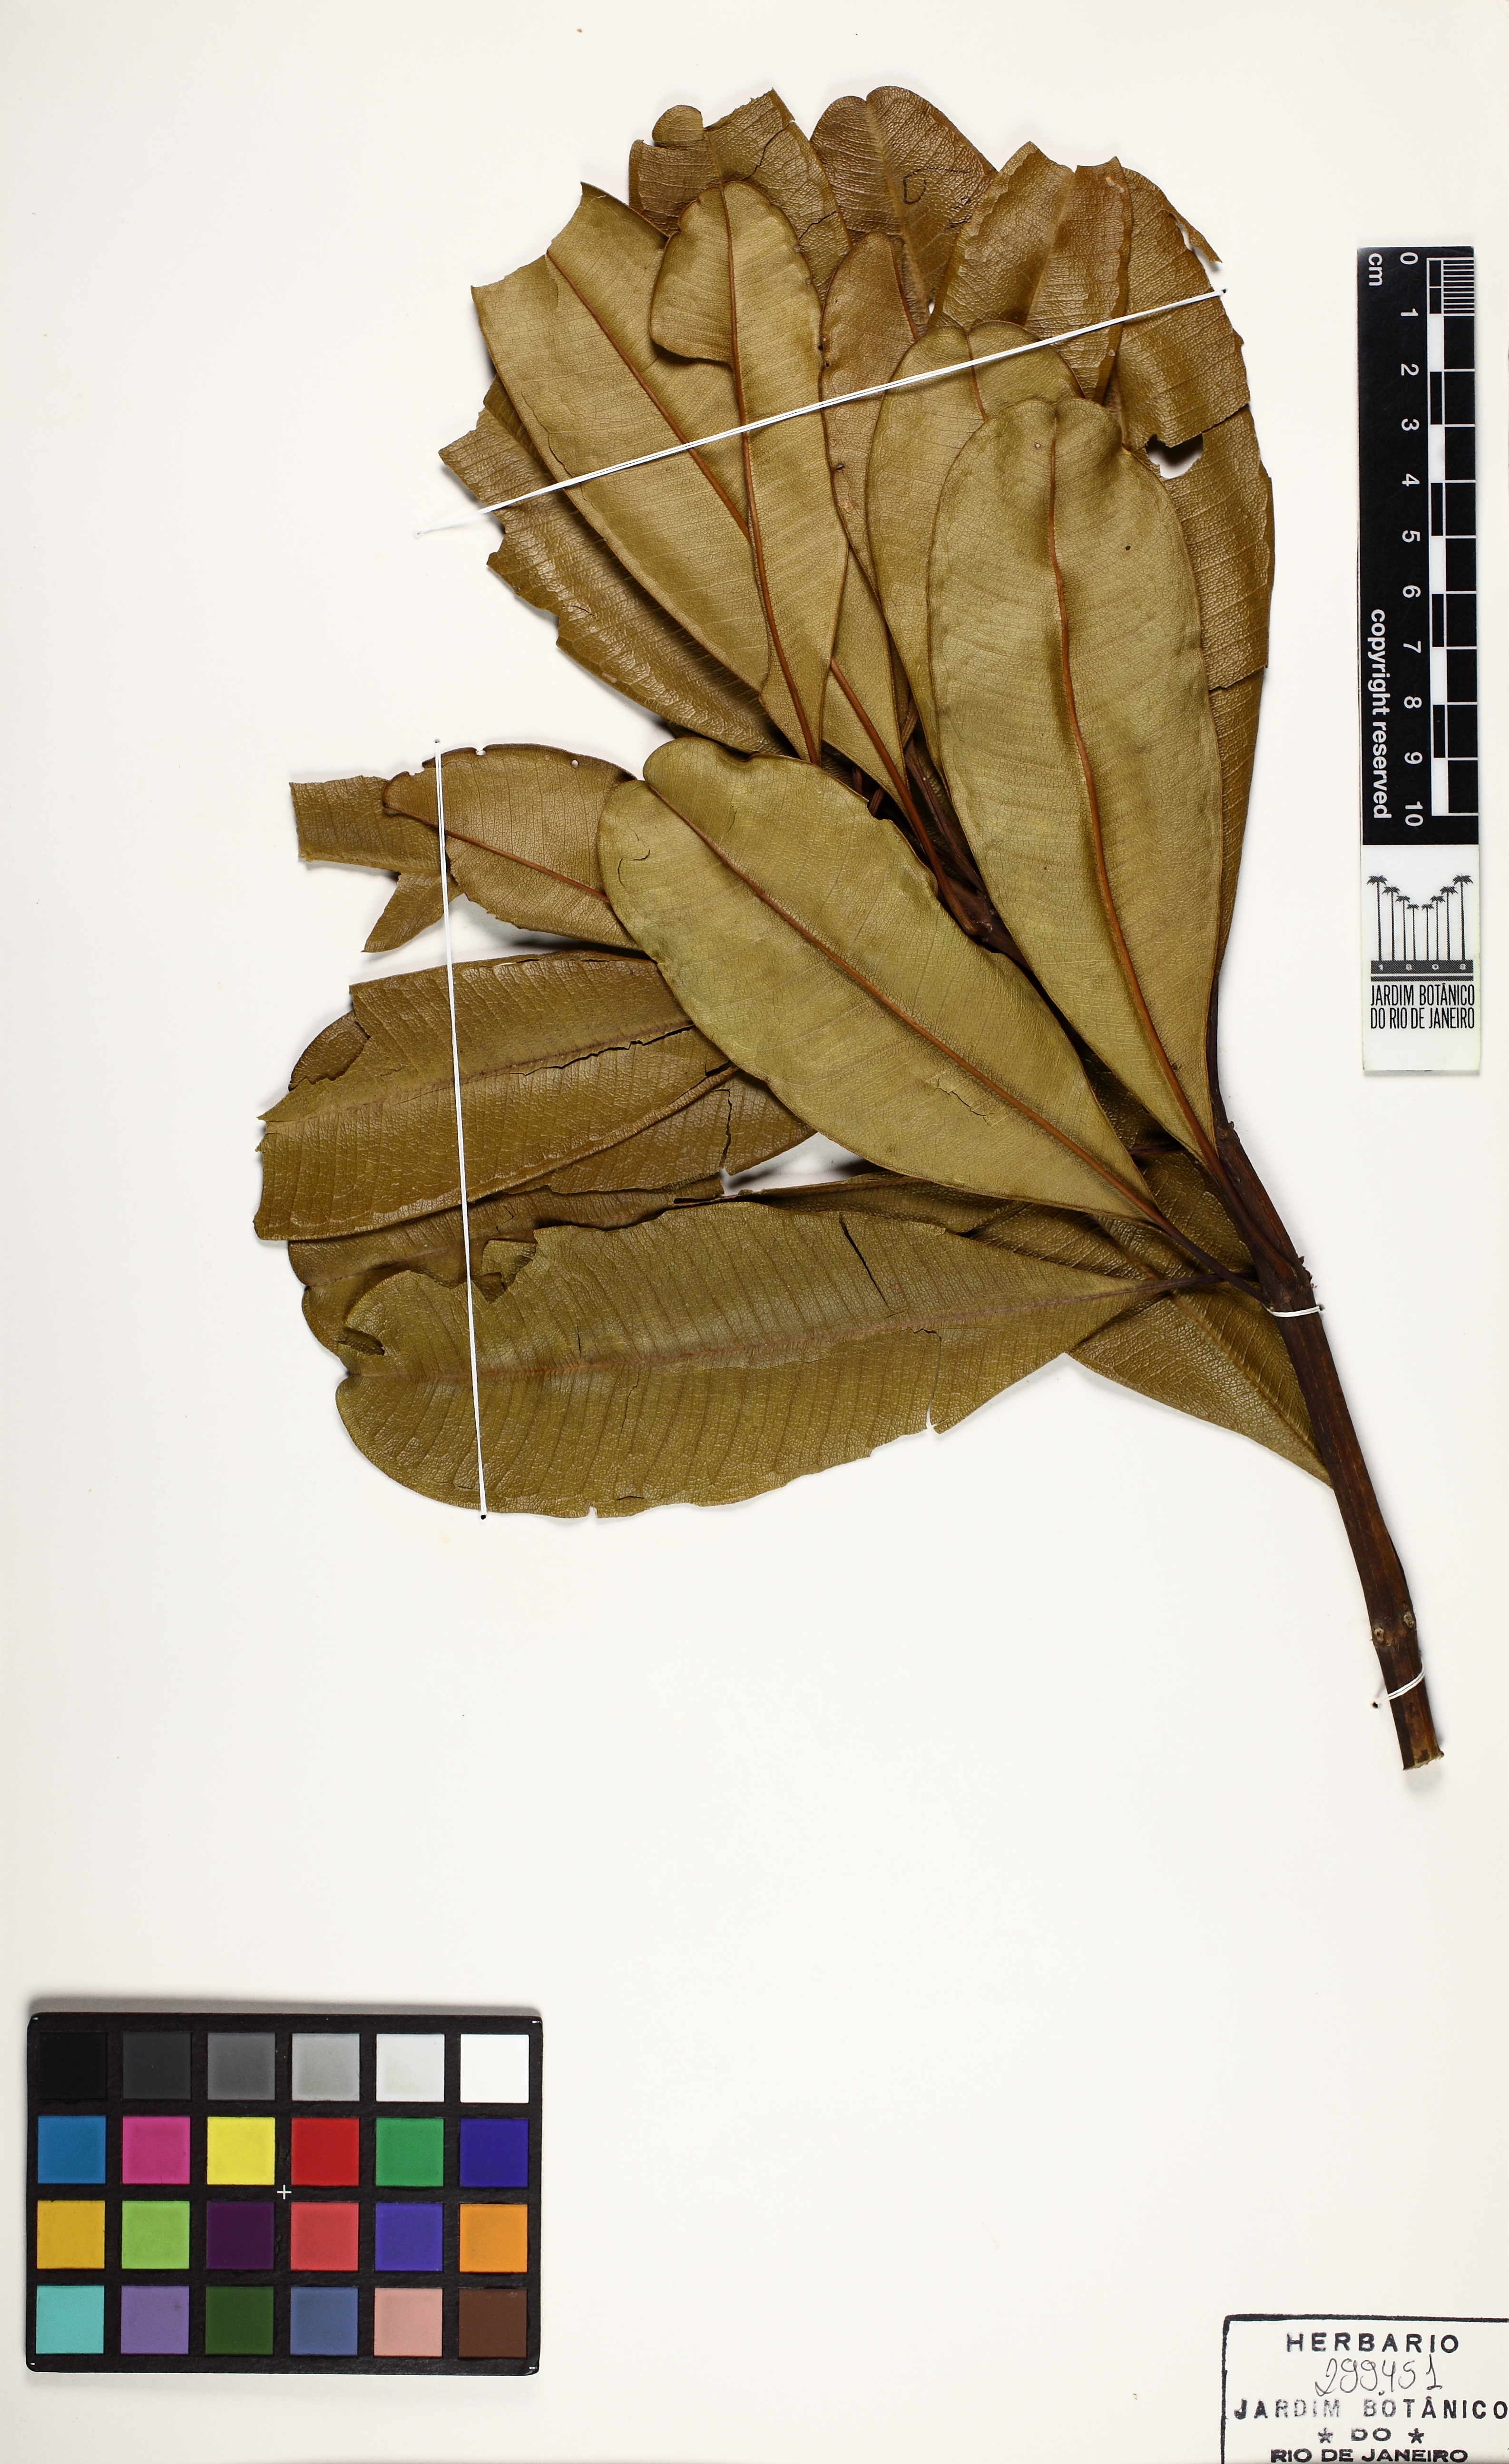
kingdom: Plantae
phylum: Tracheophyta
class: Magnoliopsida
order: Myrtales
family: Vochysiaceae
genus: Vochysia
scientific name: Vochysia oppugnata
